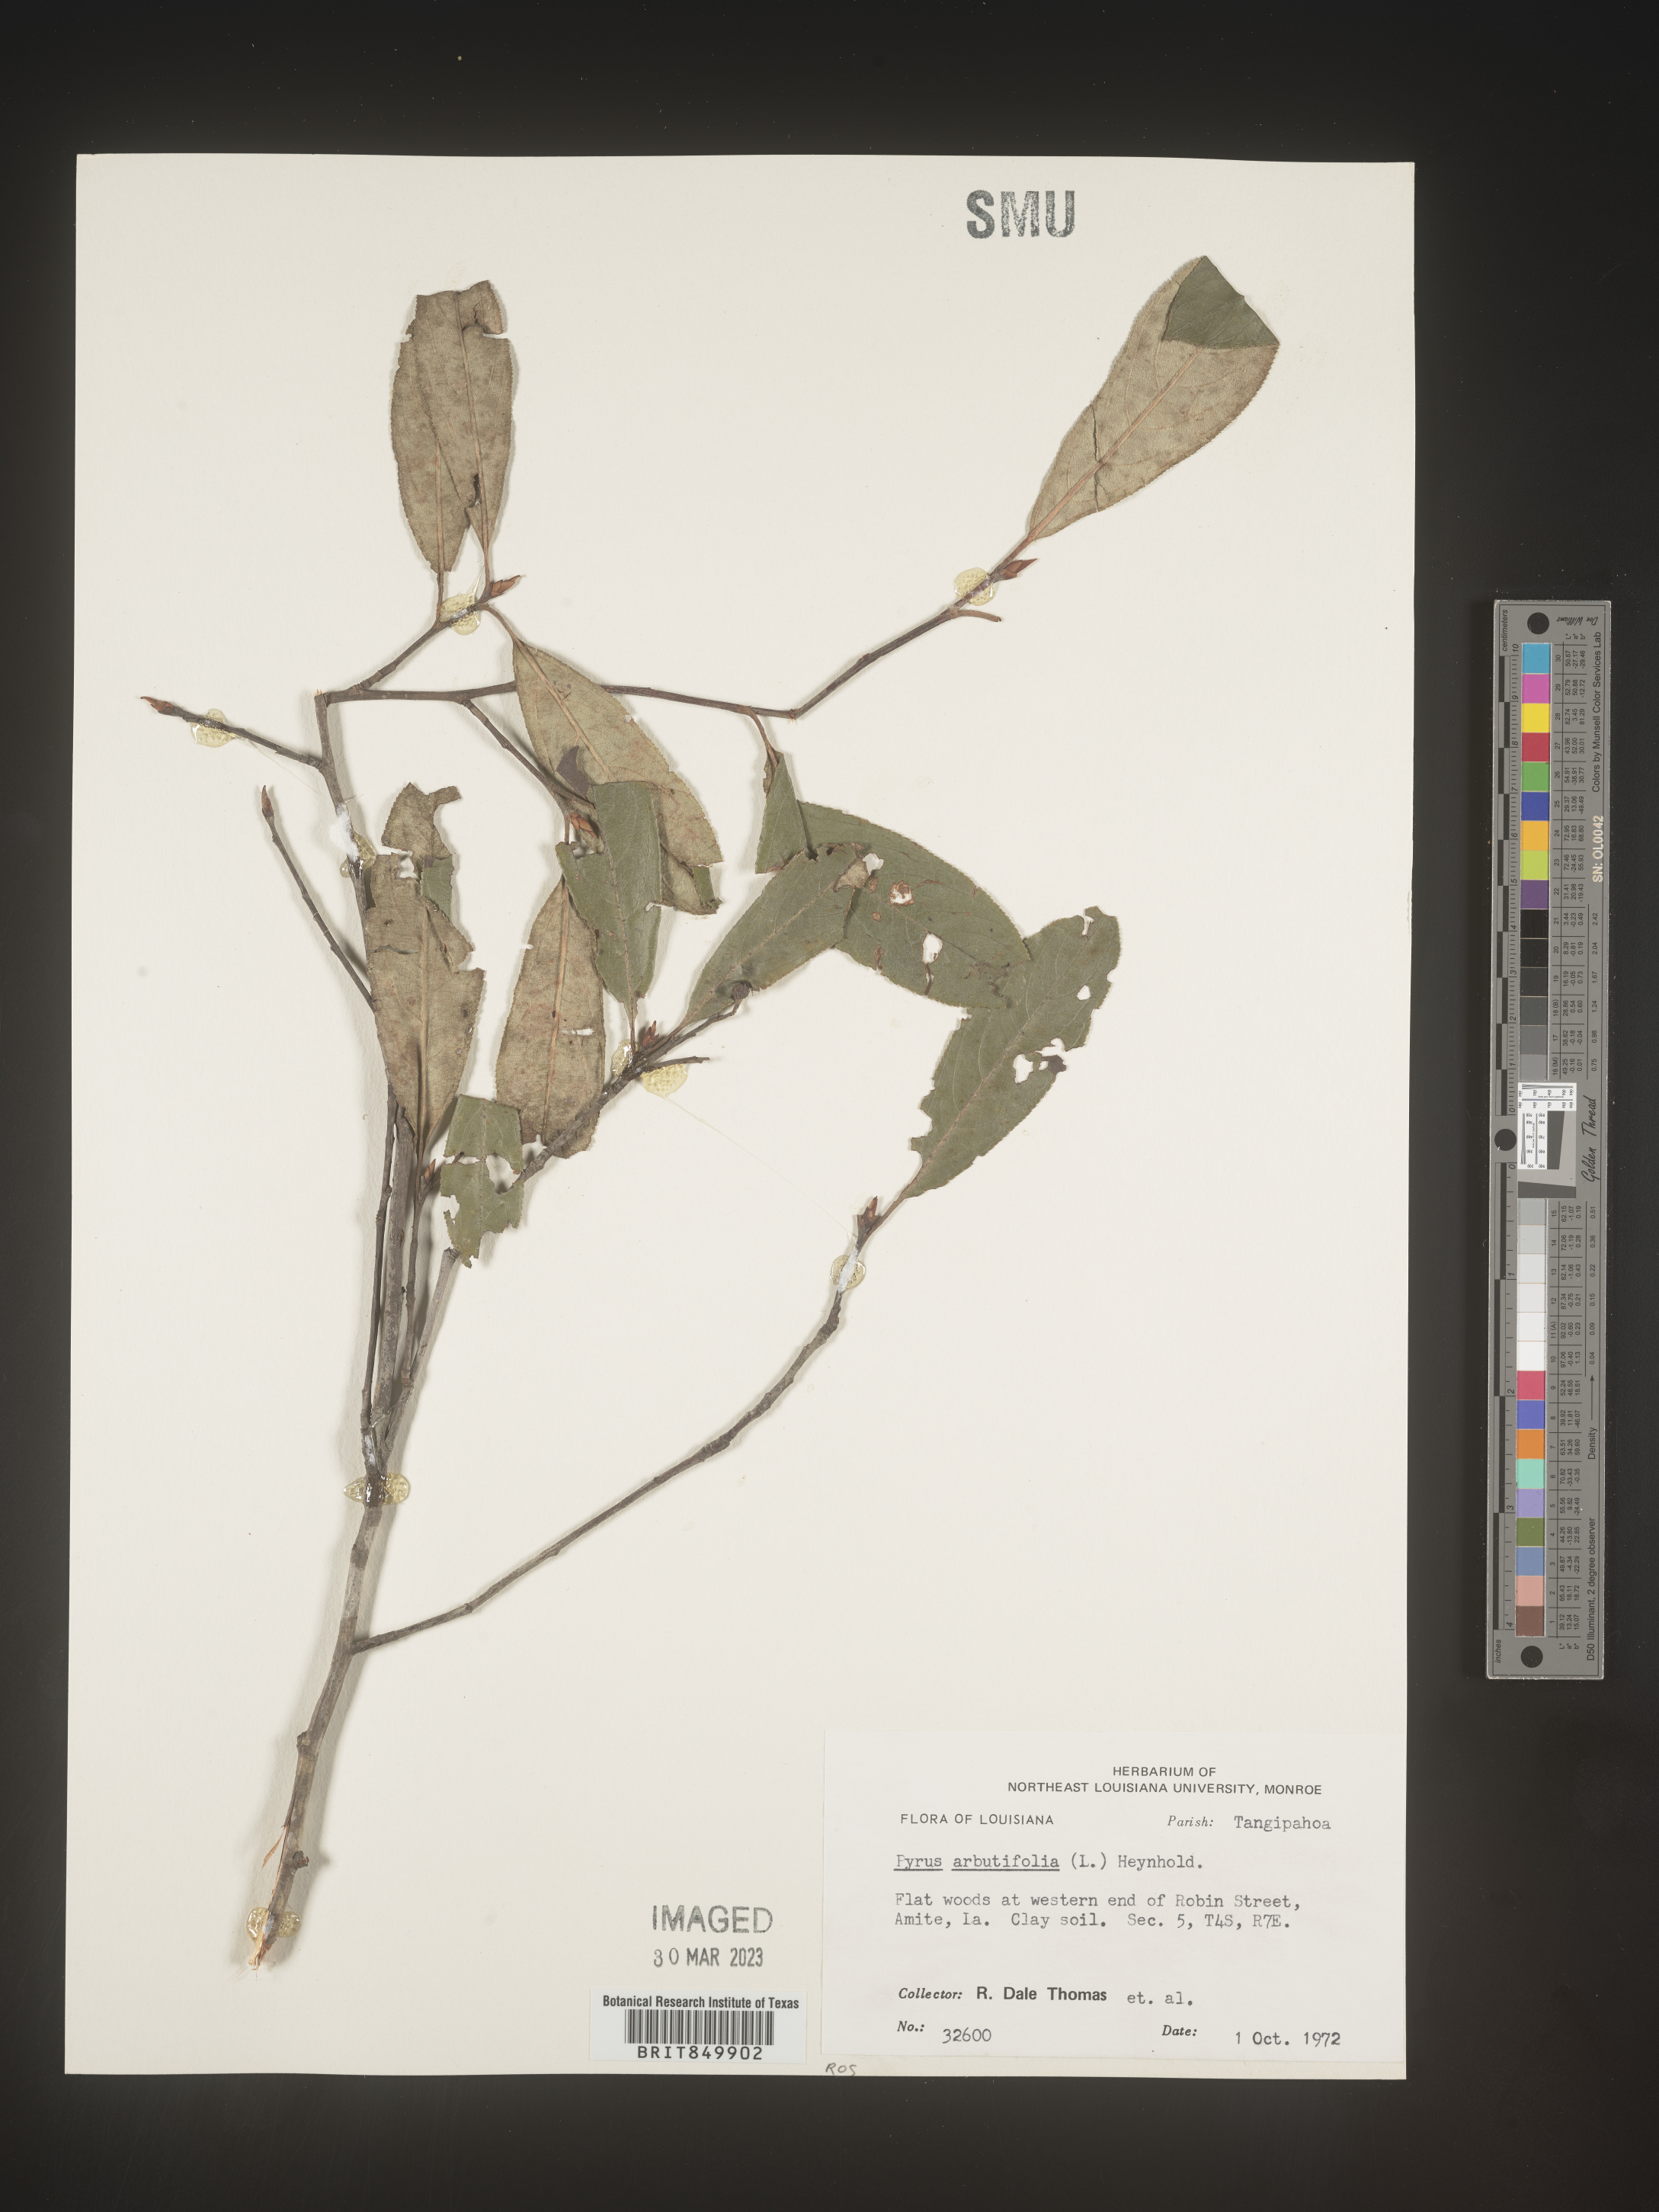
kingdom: Plantae
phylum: Tracheophyta
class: Magnoliopsida
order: Rosales
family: Rosaceae
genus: Pyrus
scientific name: Pyrus
